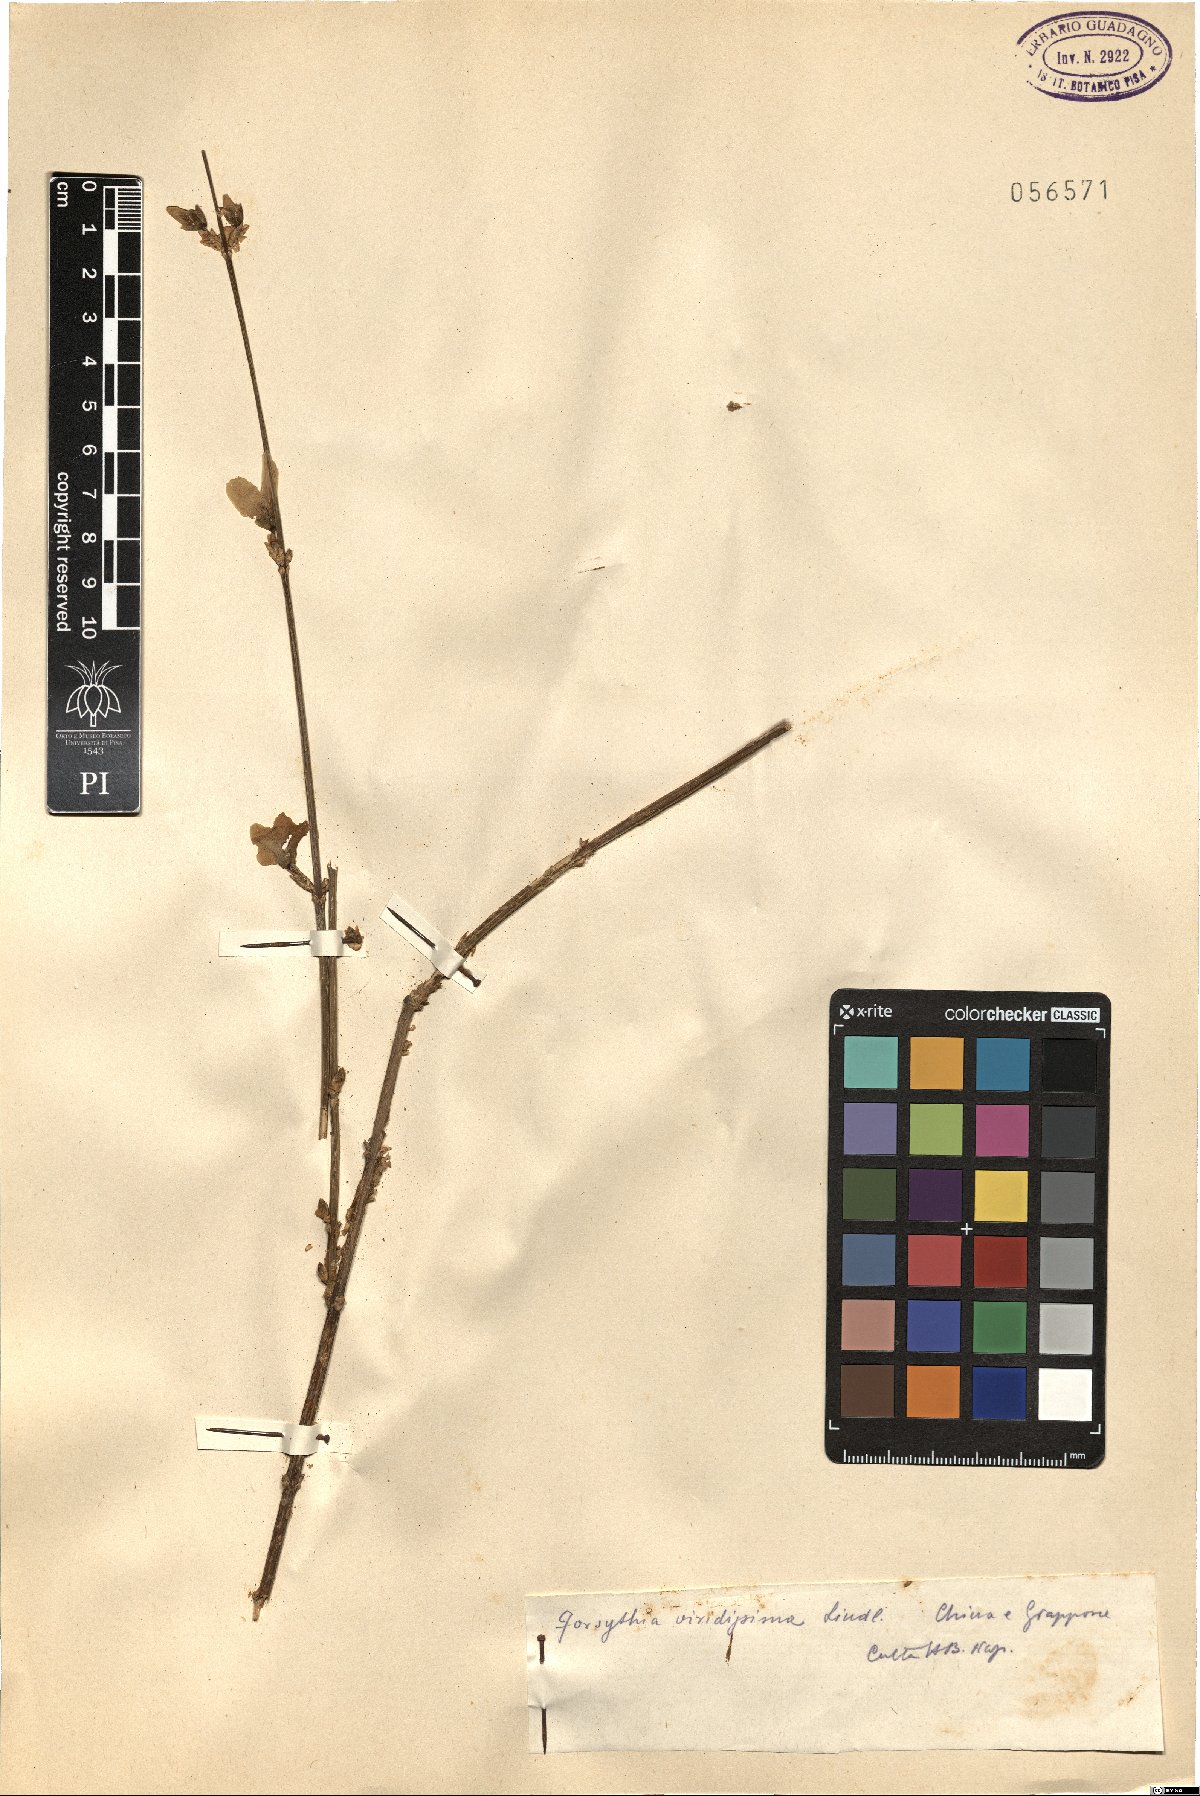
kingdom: Plantae
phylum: Tracheophyta
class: Magnoliopsida
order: Lamiales
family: Oleaceae
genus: Forsythia
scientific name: Forsythia viridissima
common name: Greenstem forsythia
